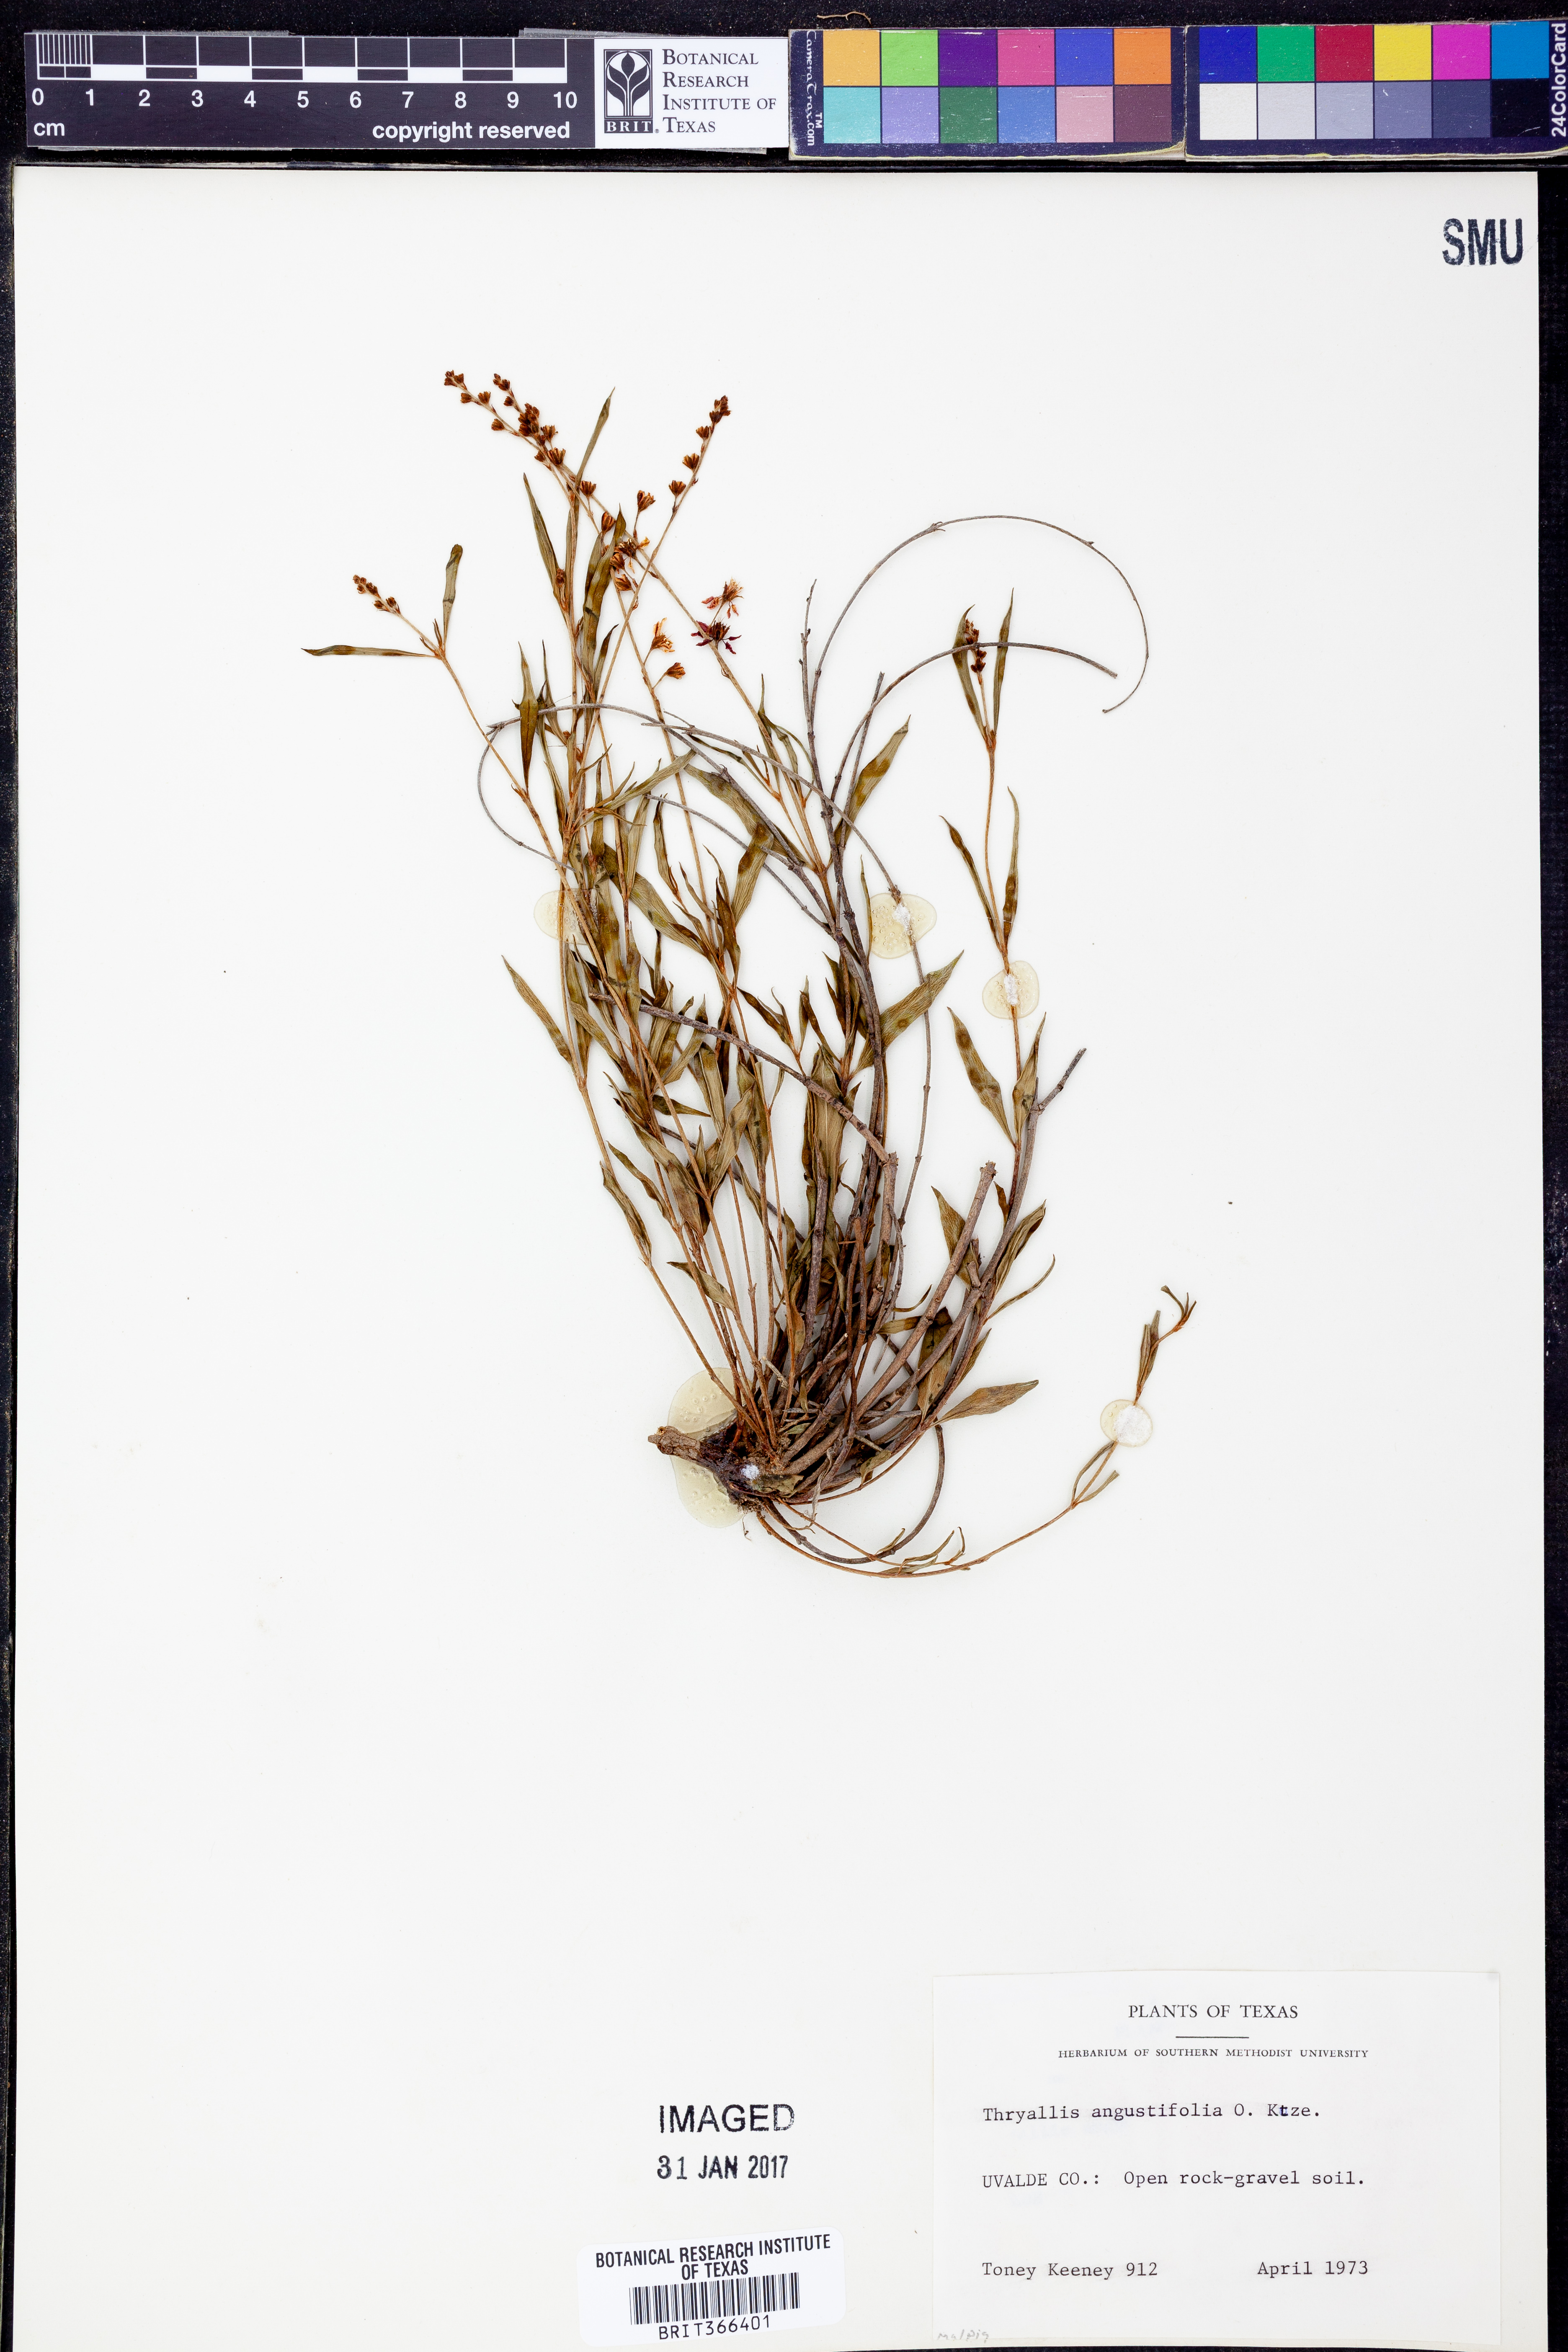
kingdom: Plantae
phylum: Tracheophyta
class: Magnoliopsida
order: Malpighiales
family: Malpighiaceae
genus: Galphimia
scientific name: Galphimia angustifolia
